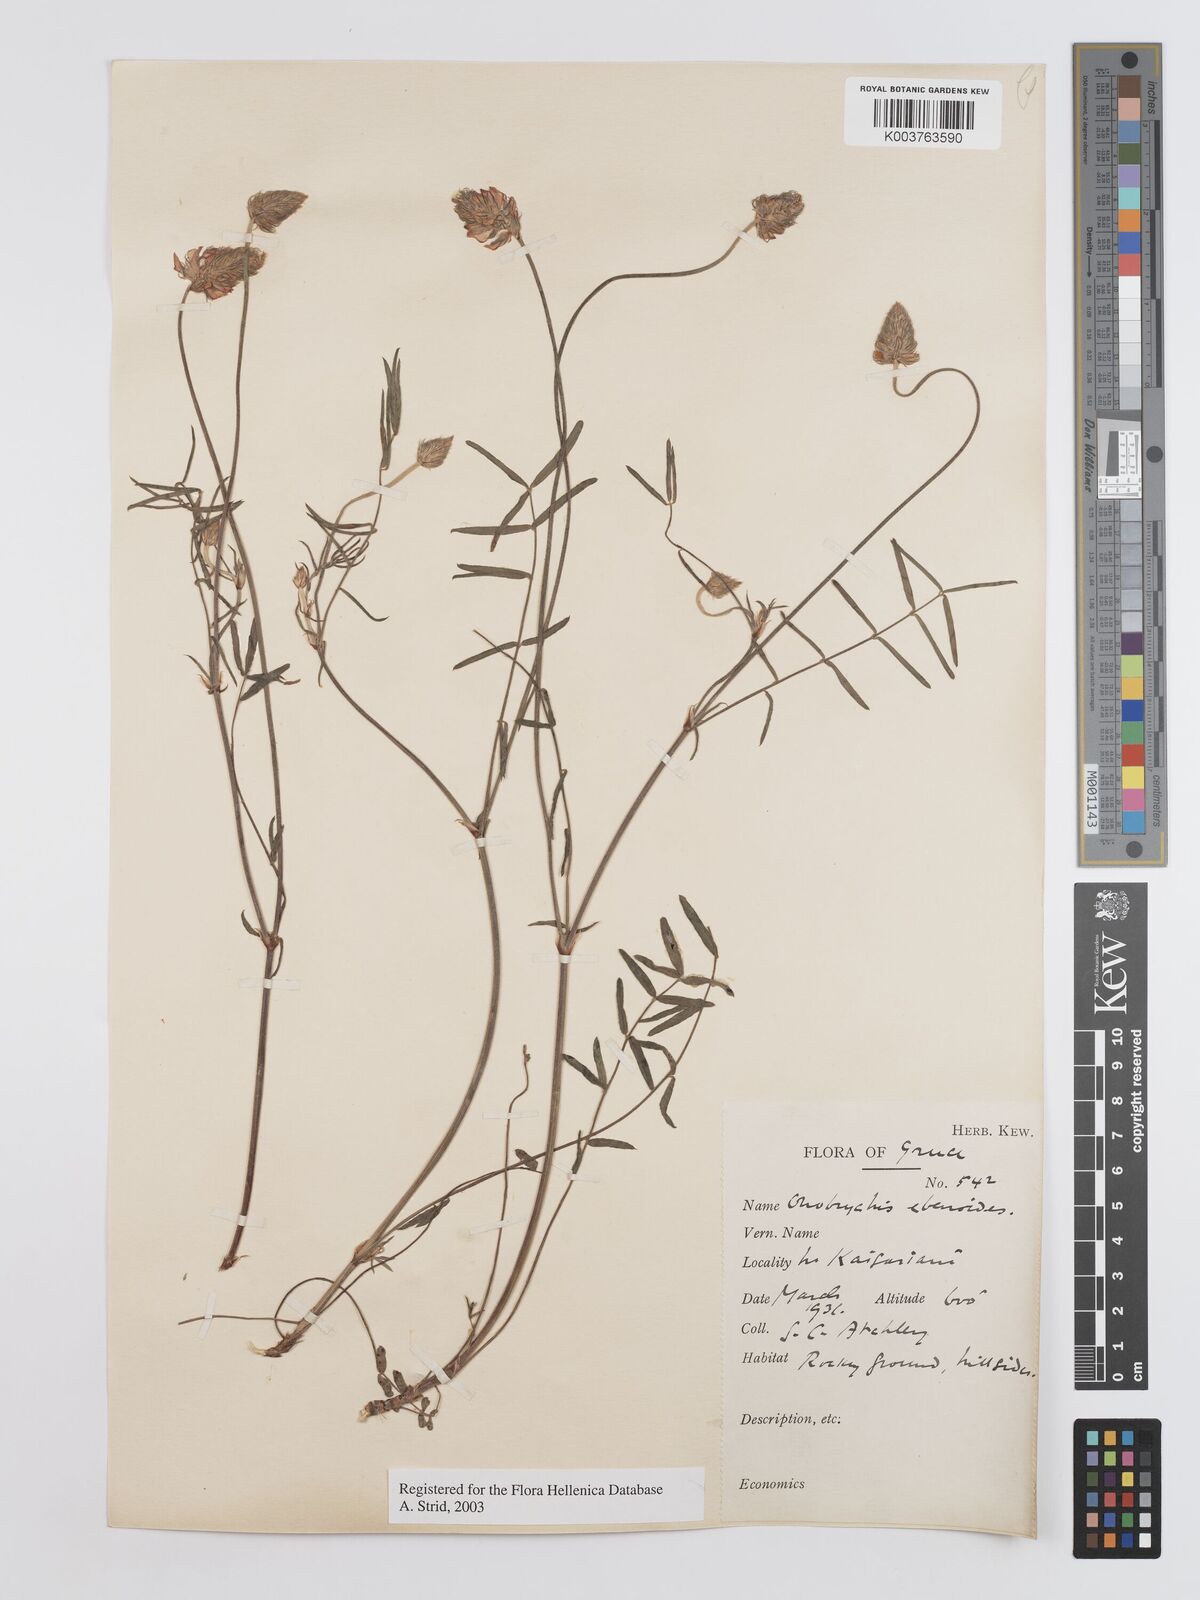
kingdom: Plantae
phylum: Tracheophyta
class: Magnoliopsida
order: Fabales
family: Fabaceae
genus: Onobrychis
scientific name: Onobrychis ebenoides
